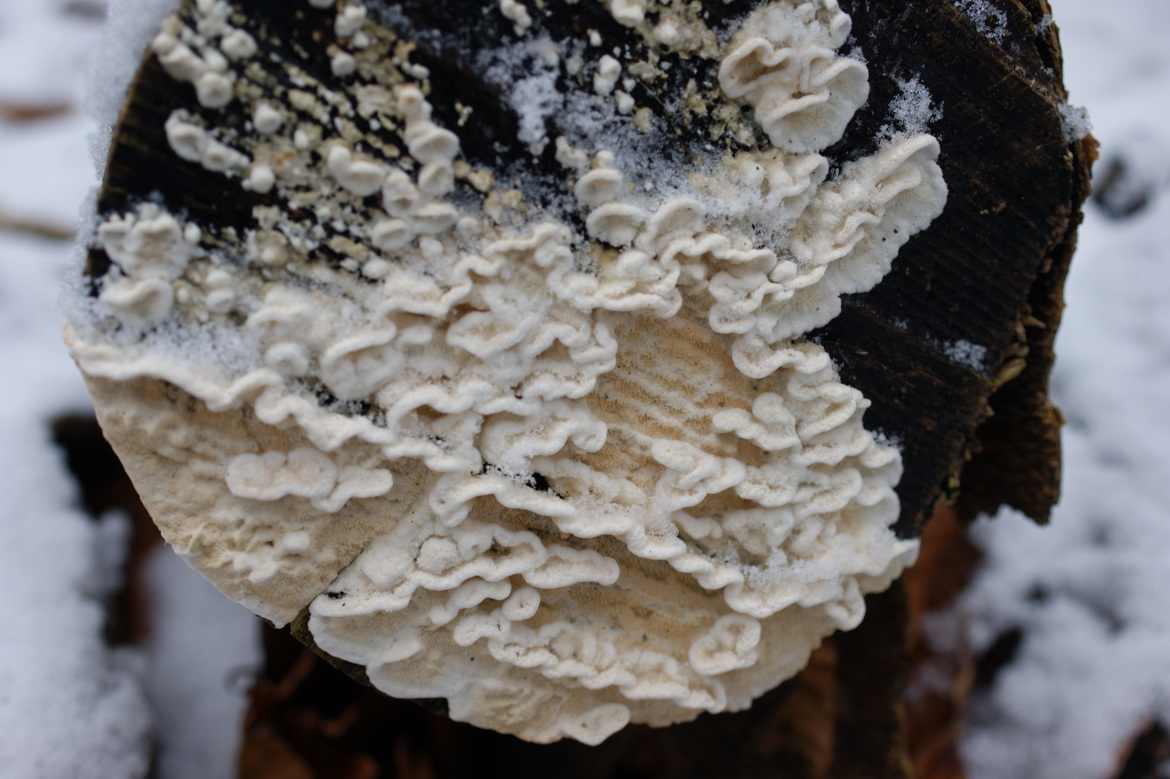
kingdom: Fungi
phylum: Basidiomycota
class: Agaricomycetes
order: Polyporales
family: Irpicaceae
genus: Byssomerulius
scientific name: Byssomerulius corium
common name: læder-åresvamp
